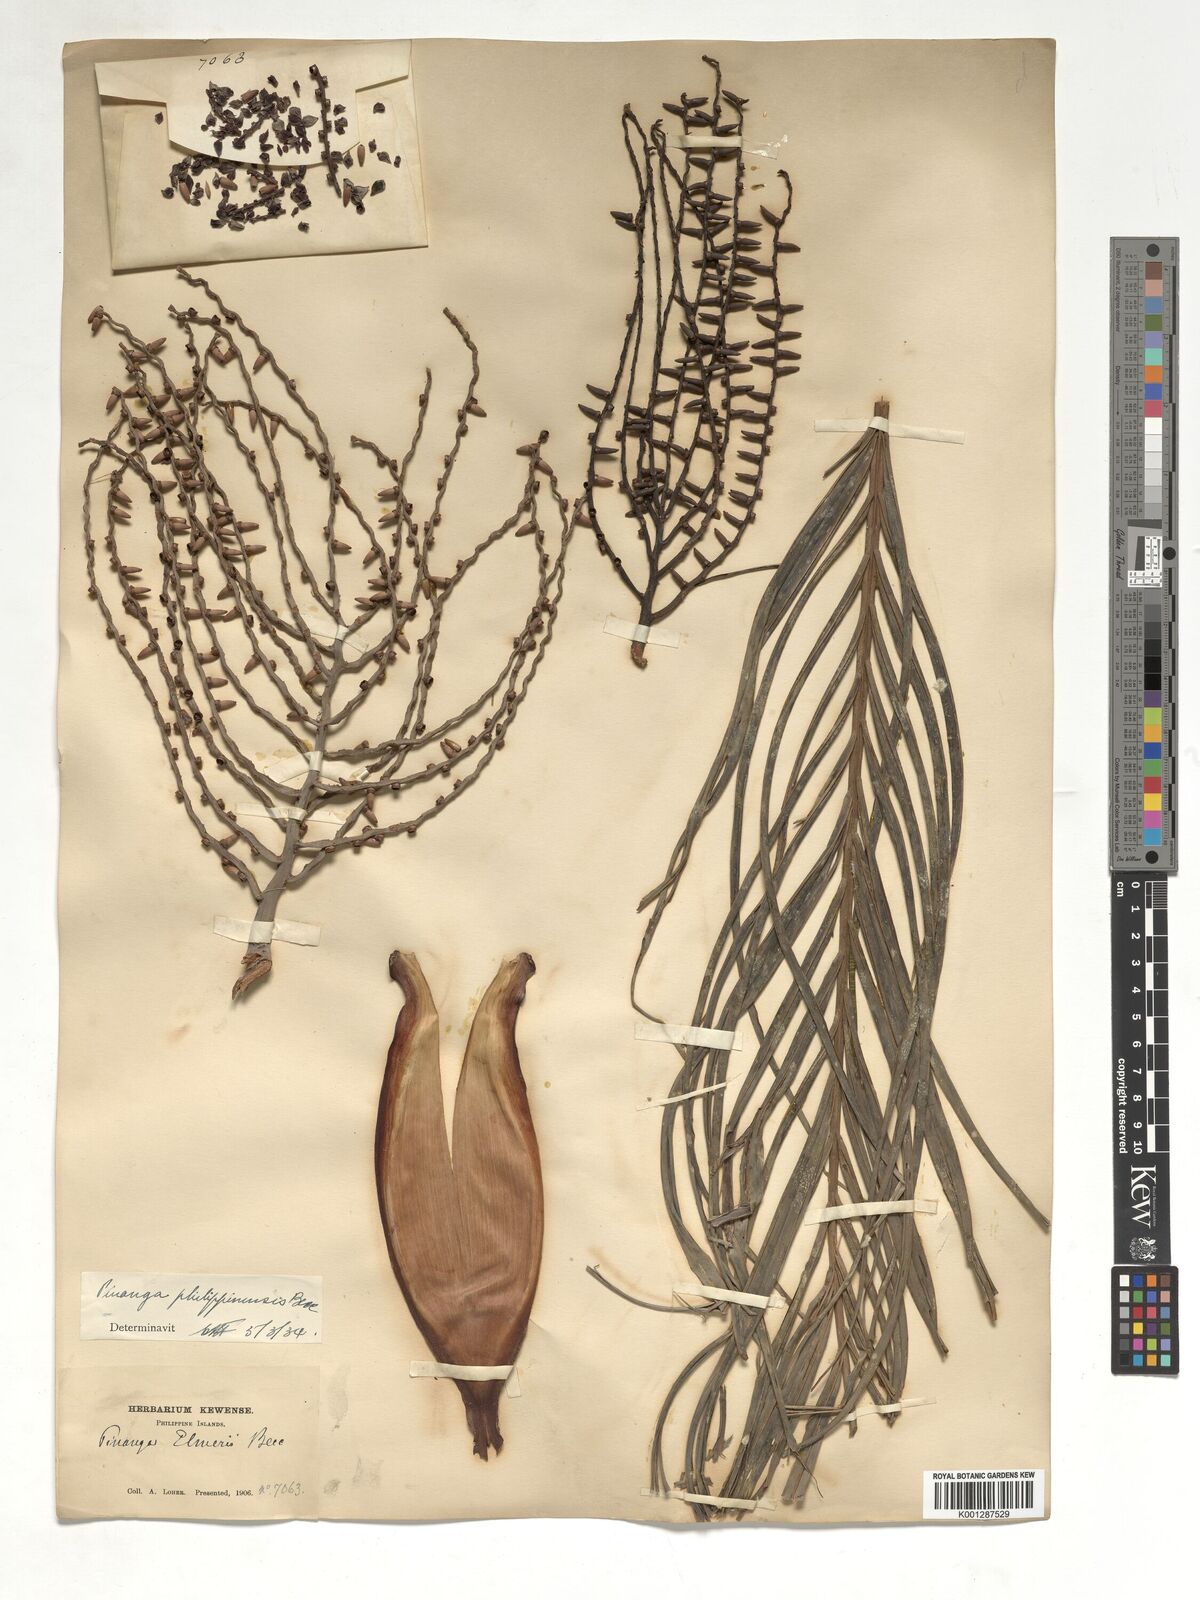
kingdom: Plantae
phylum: Tracheophyta
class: Liliopsida
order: Arecales
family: Arecaceae
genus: Pinanga
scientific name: Pinanga philippinensis
